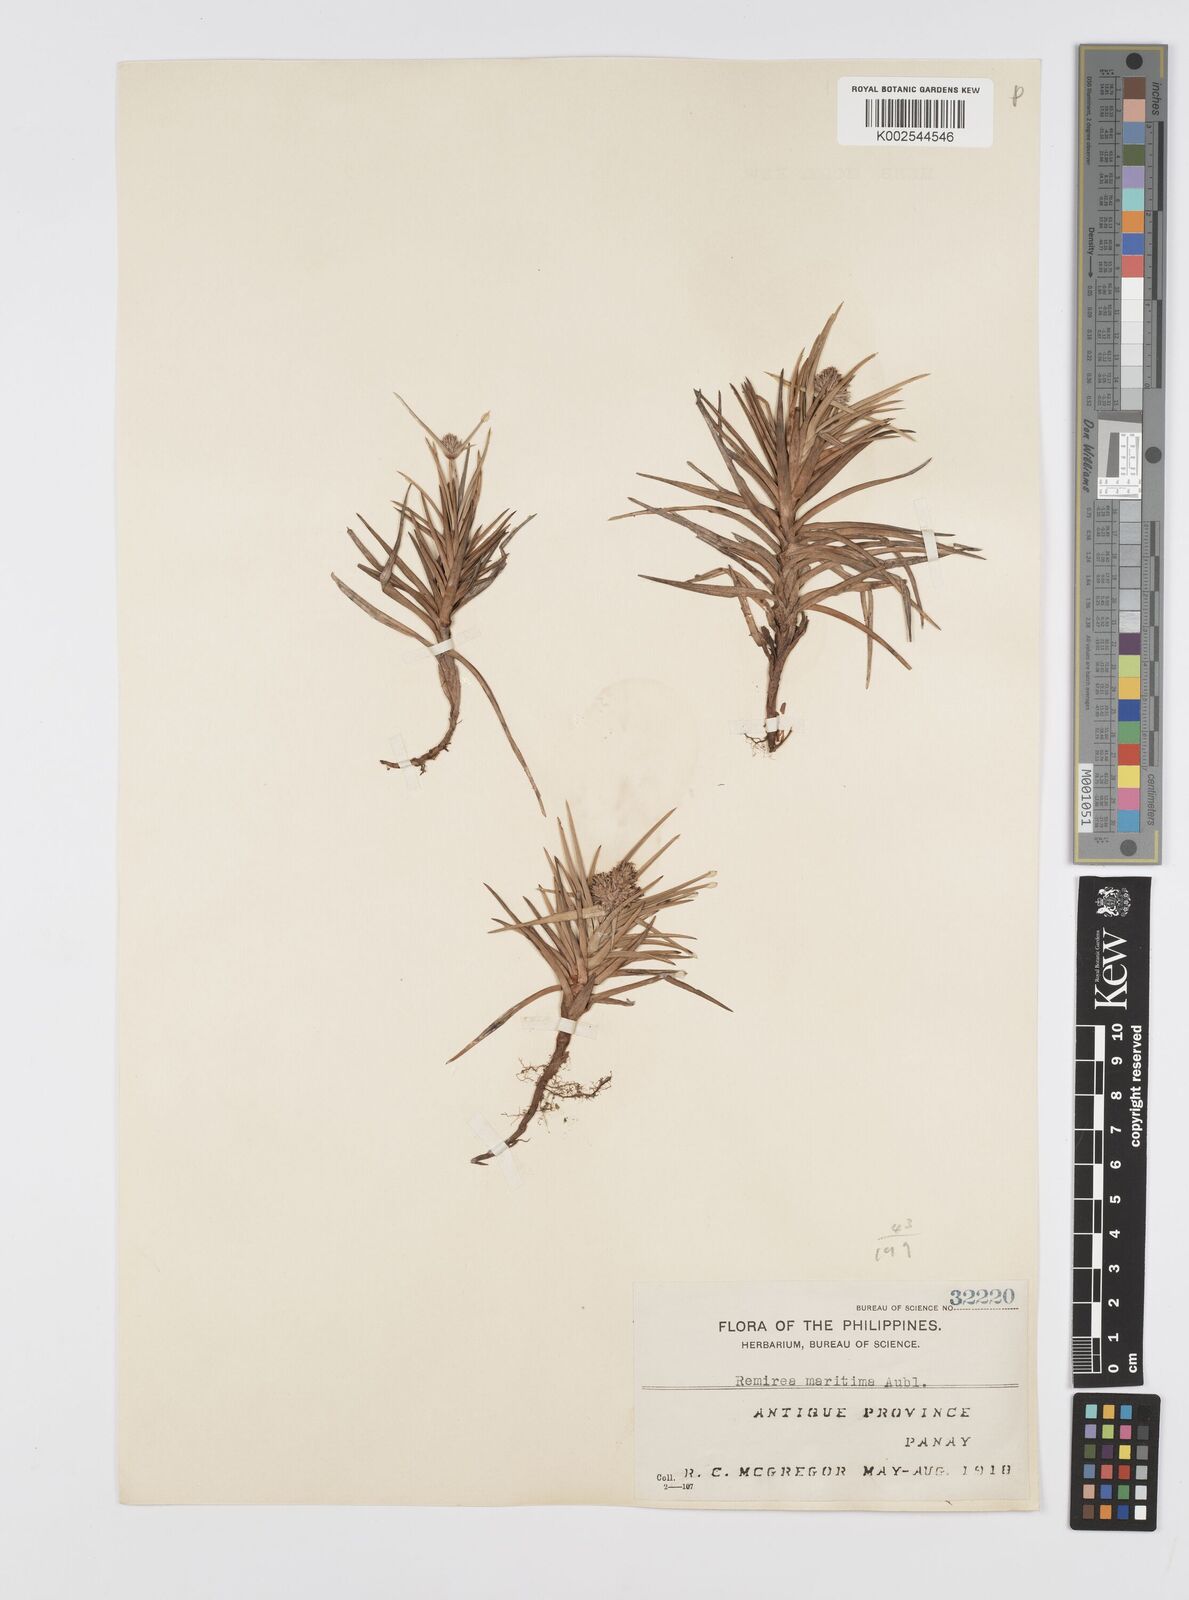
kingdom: Plantae
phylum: Tracheophyta
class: Liliopsida
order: Poales
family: Cyperaceae
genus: Cyperus
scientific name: Cyperus
